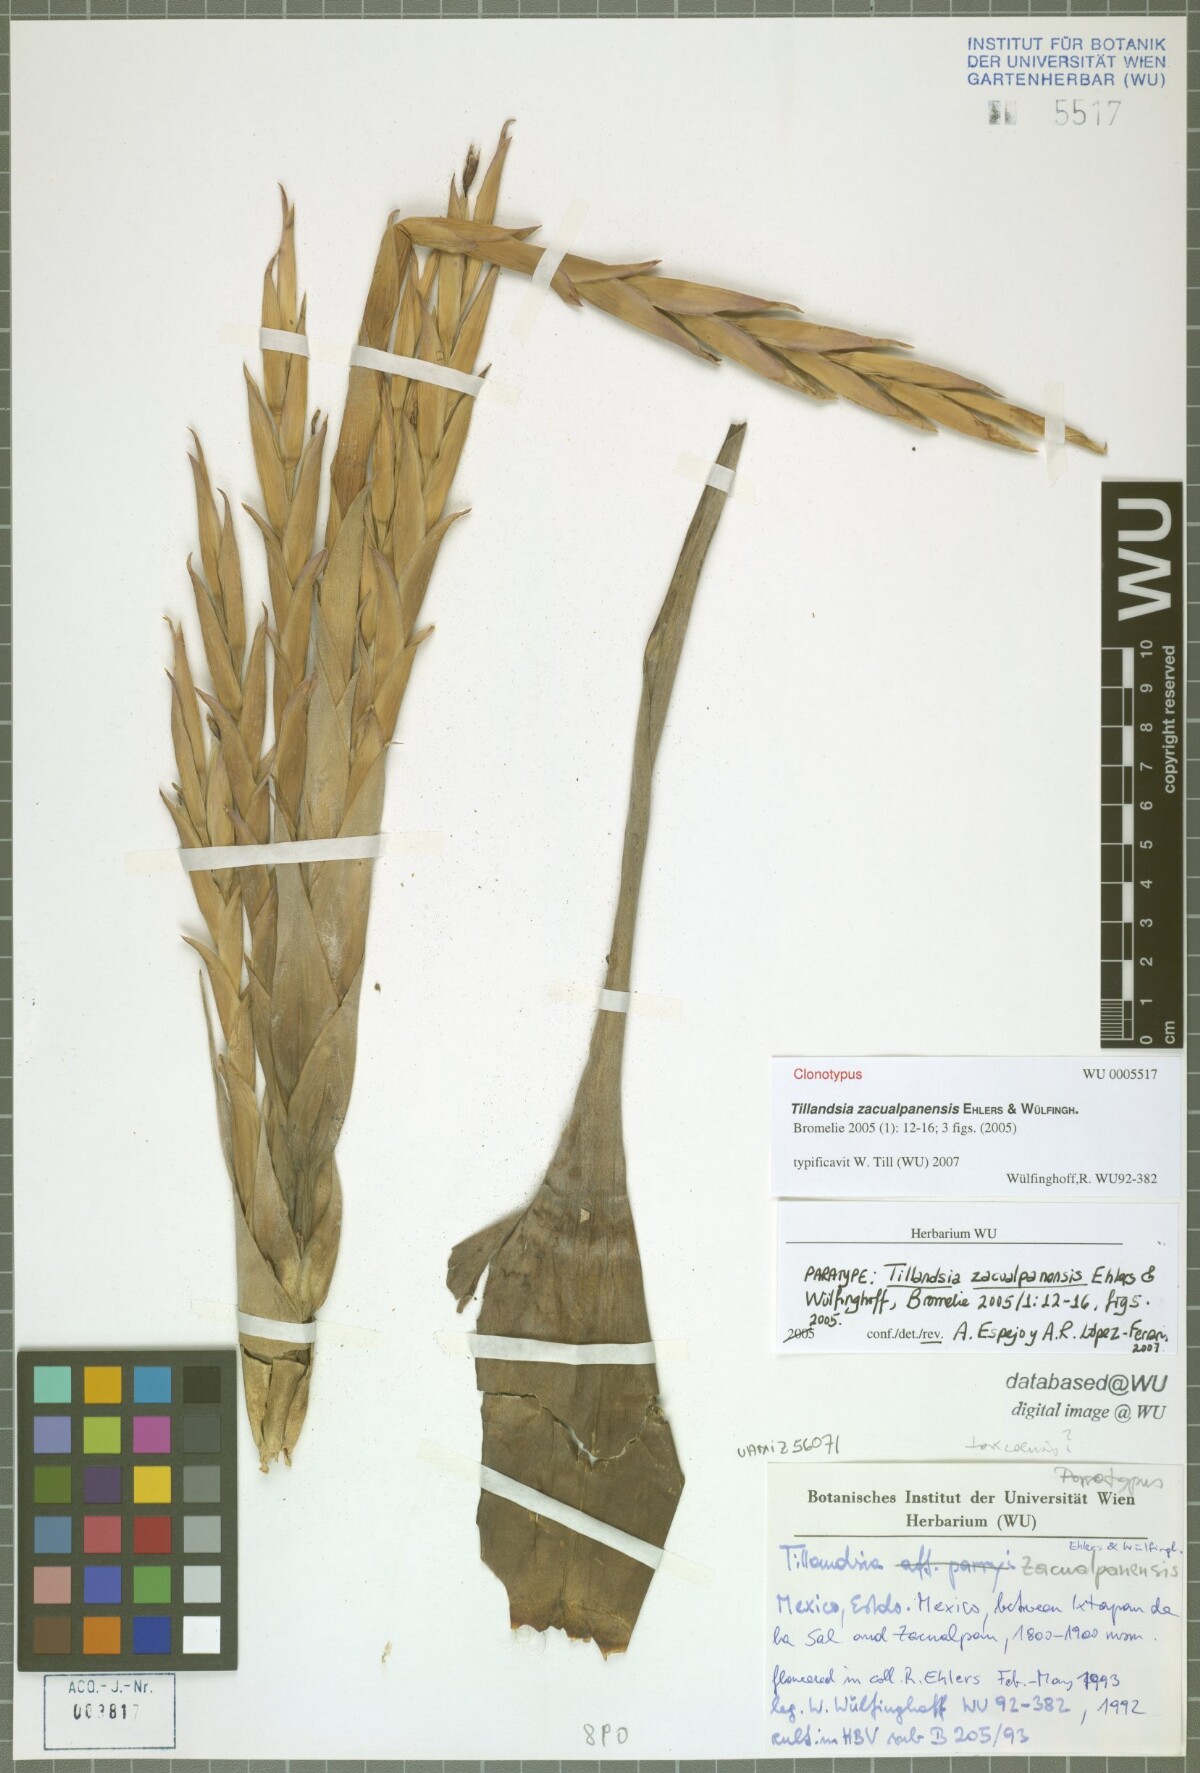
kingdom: Plantae
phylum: Tracheophyta
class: Liliopsida
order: Poales
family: Bromeliaceae
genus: Tillandsia
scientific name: Tillandsia zacualpanensis
